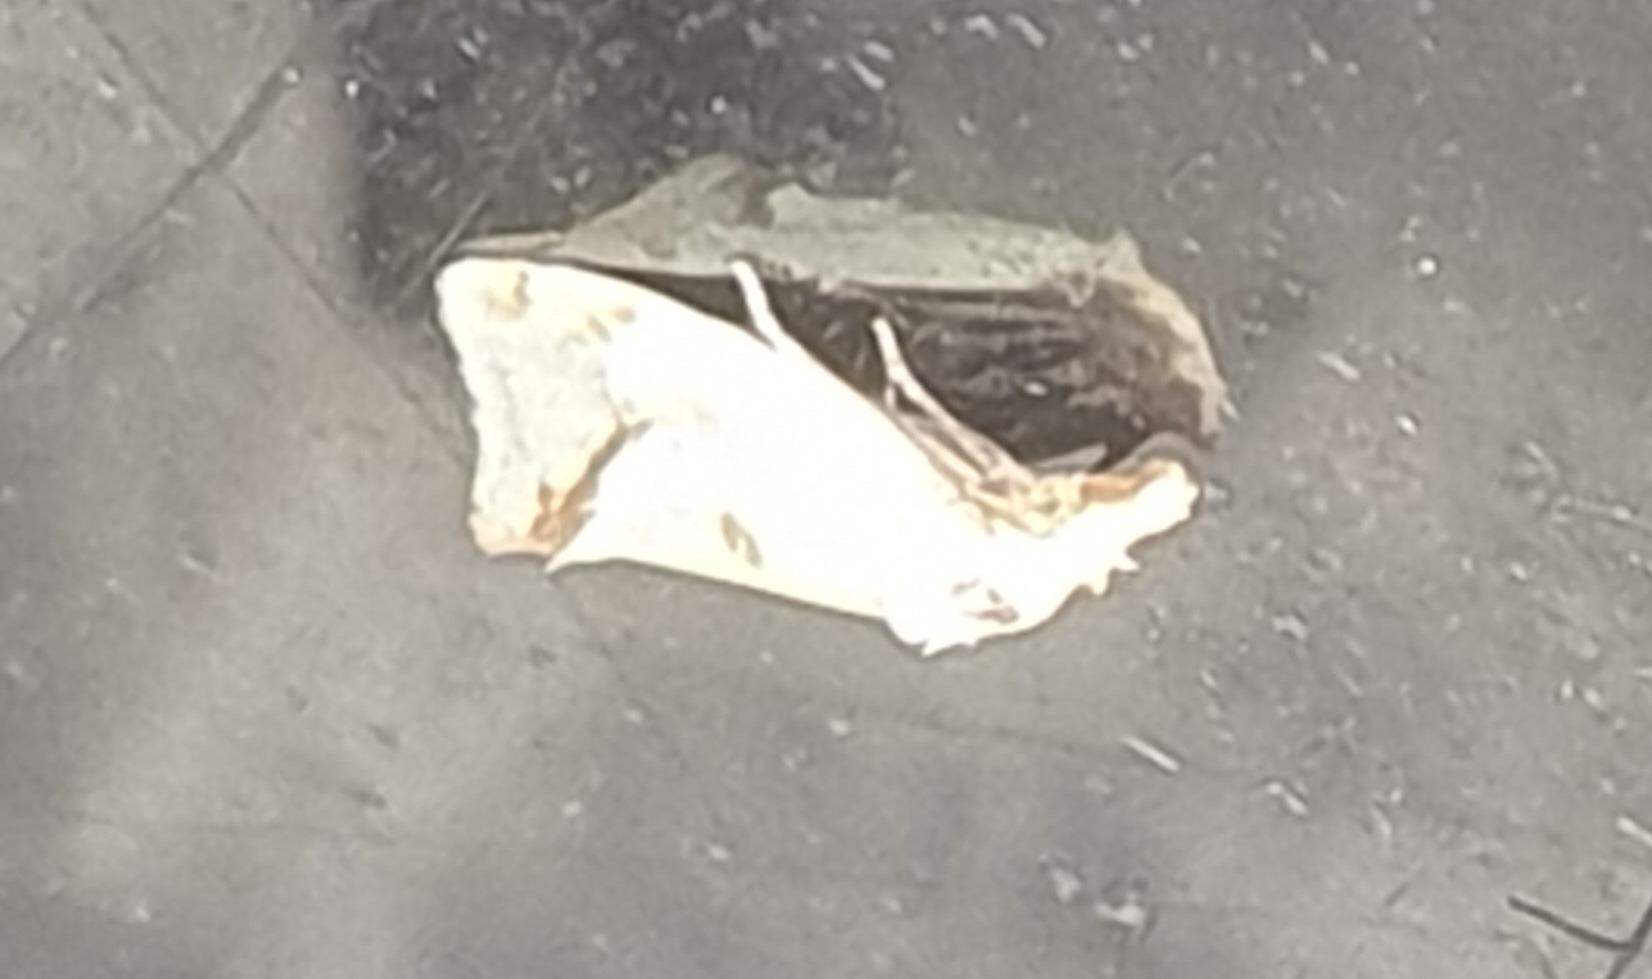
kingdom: Animalia
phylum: Arthropoda
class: Insecta
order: Lepidoptera
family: Tortricidae
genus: Agapeta
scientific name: Agapeta hamana
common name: Tidselgulvikler
